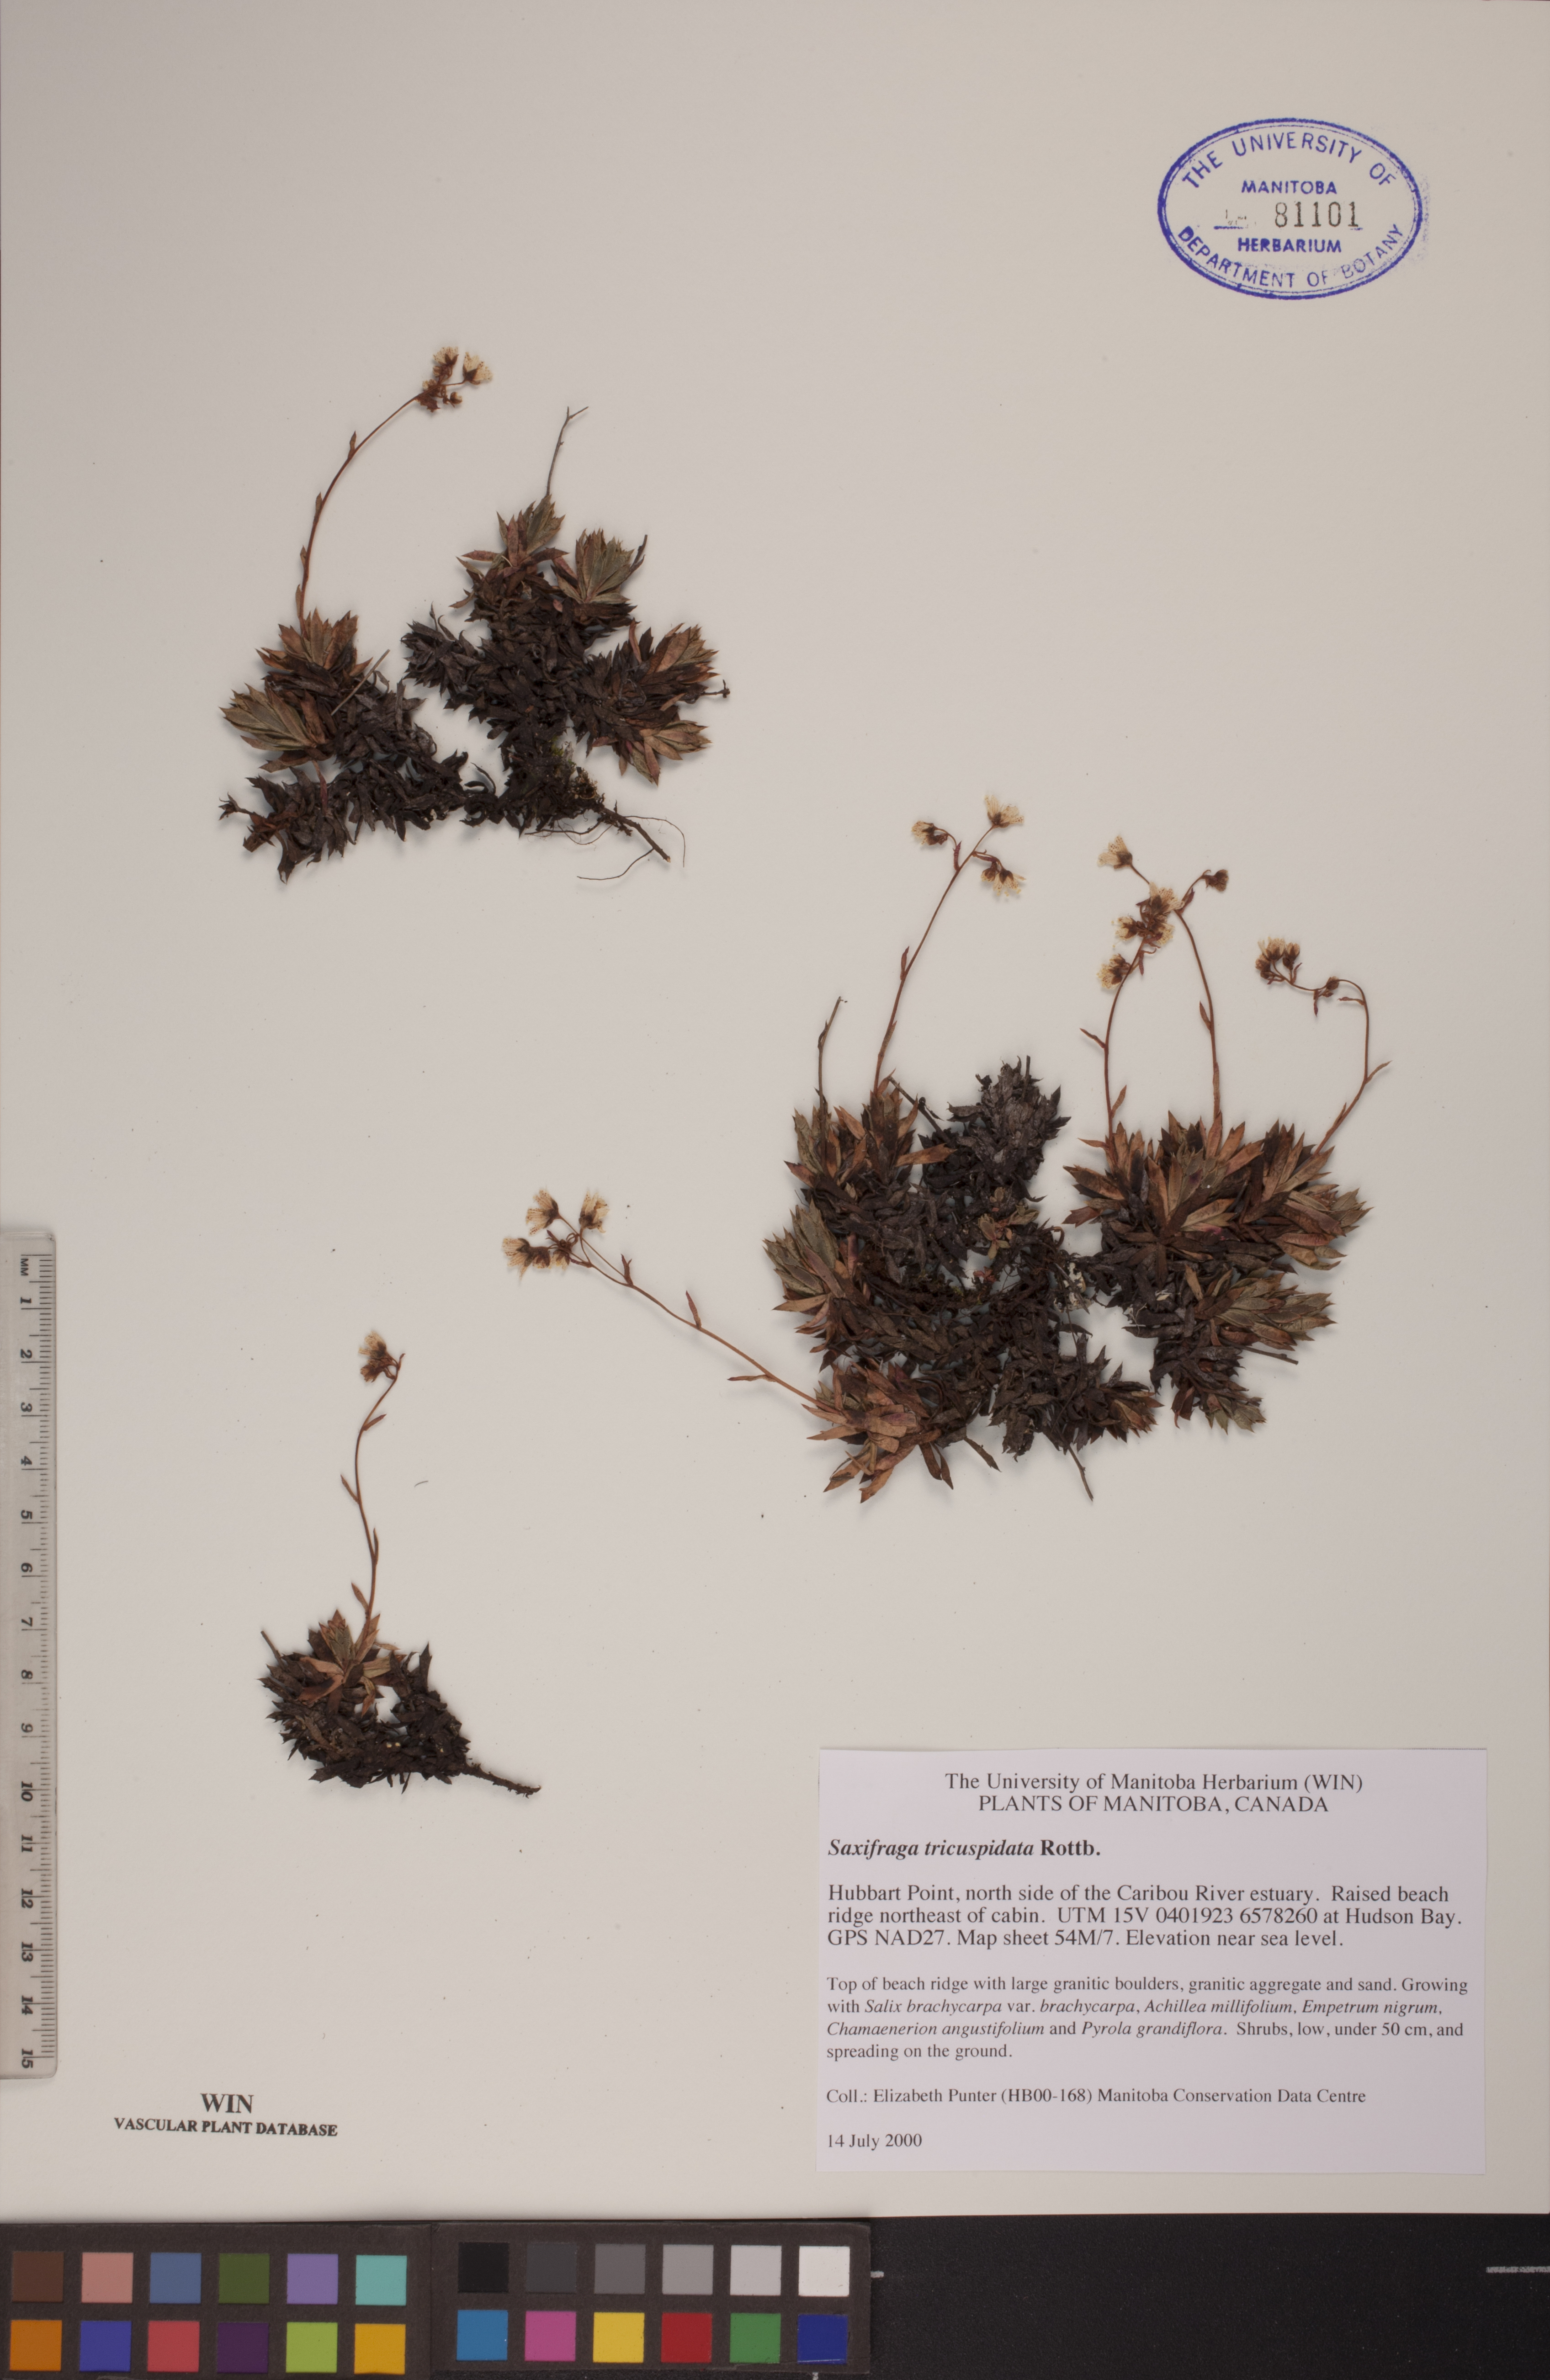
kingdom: Plantae
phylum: Tracheophyta
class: Magnoliopsida
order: Saxifragales
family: Saxifragaceae
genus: Saxifraga
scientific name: Saxifraga tricuspidata
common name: Prickly saxifrage
